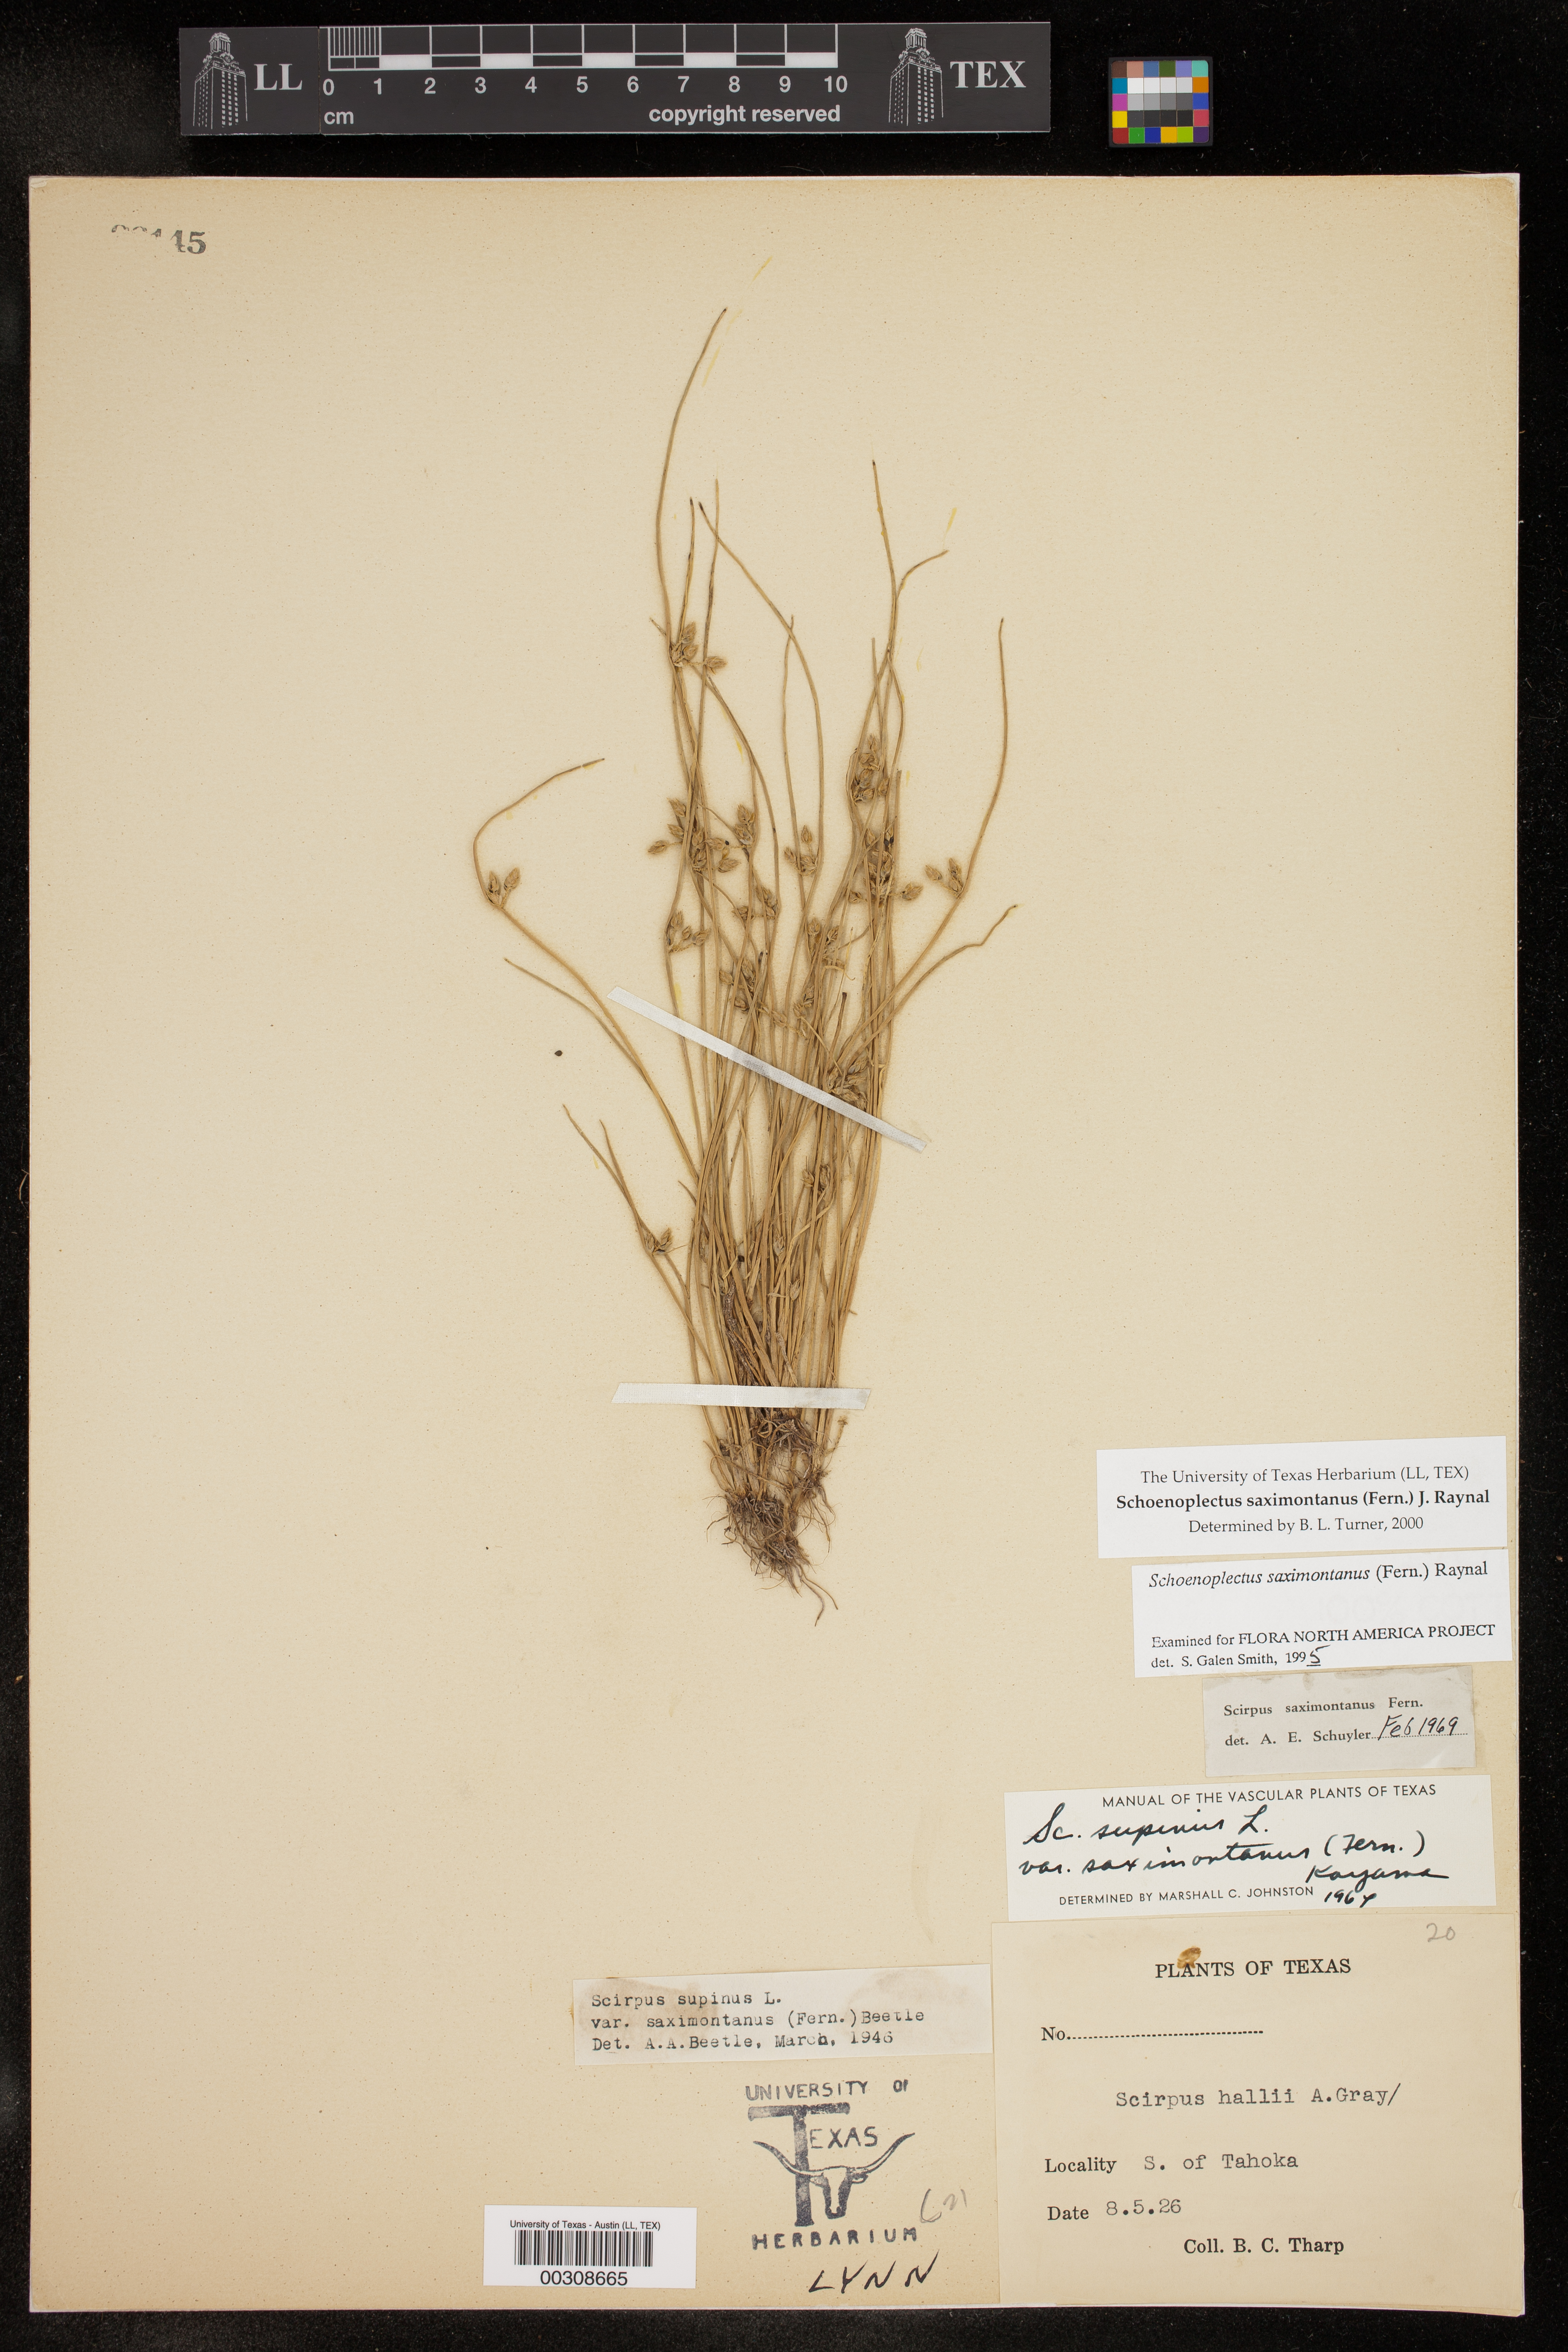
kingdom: Plantae
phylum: Tracheophyta
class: Liliopsida
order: Poales
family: Cyperaceae
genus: Schoenoplectiella
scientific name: Schoenoplectiella saximontana
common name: Rocky mountain clubrush
